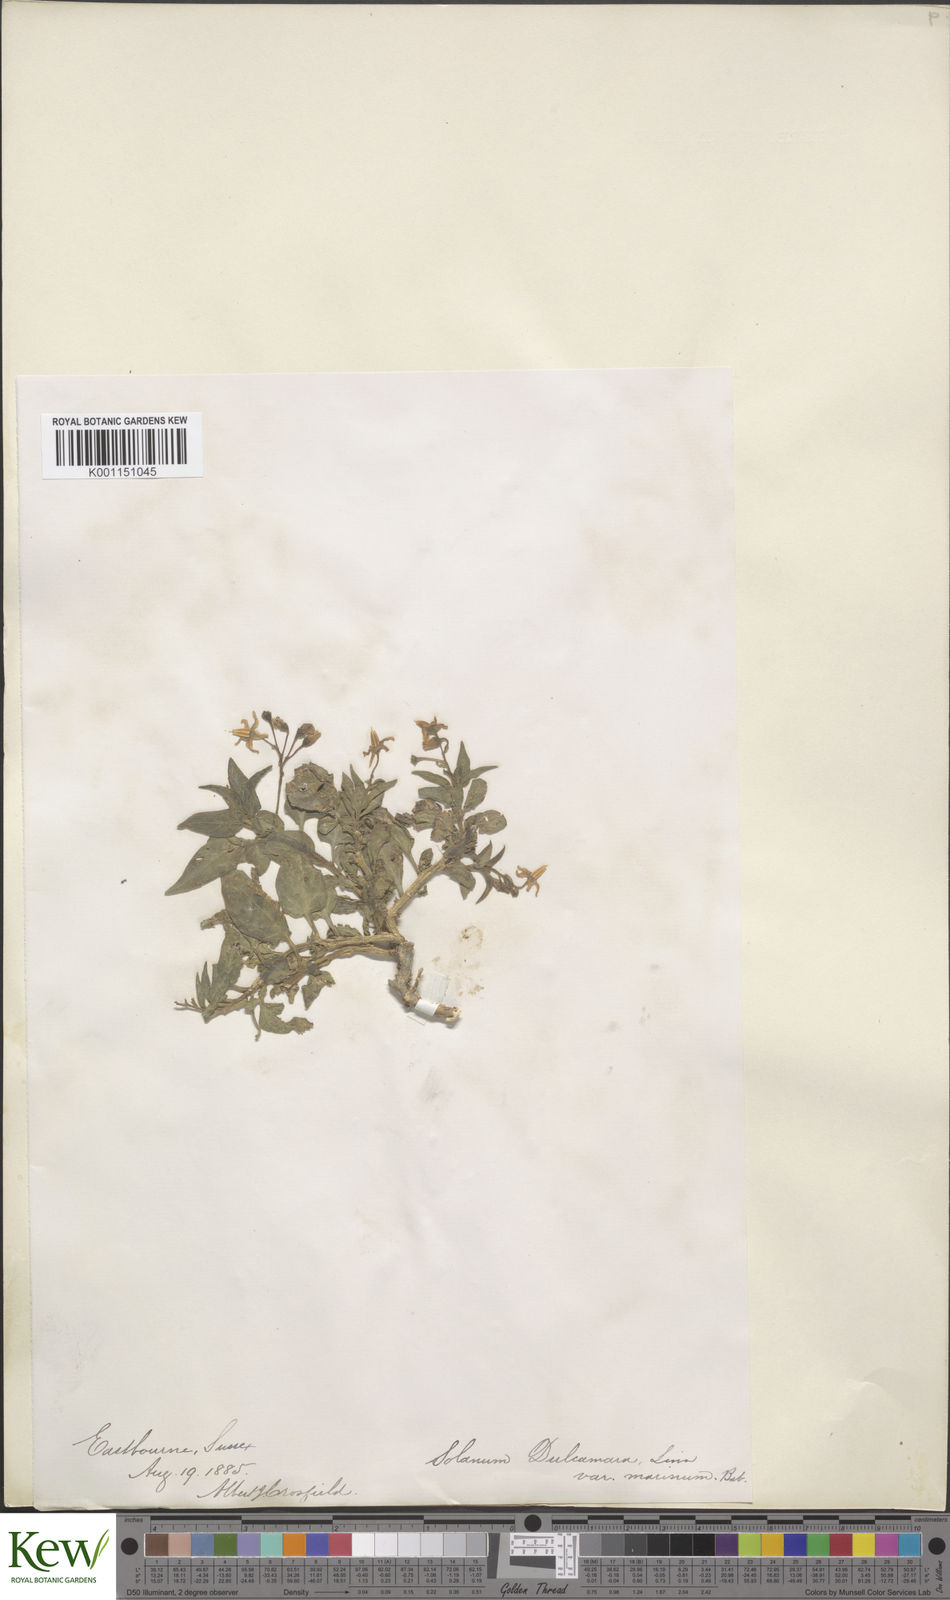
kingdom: Plantae
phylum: Tracheophyta
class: Magnoliopsida
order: Solanales
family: Solanaceae
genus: Solanum
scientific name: Solanum dulcamara
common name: Climbing nightshade
